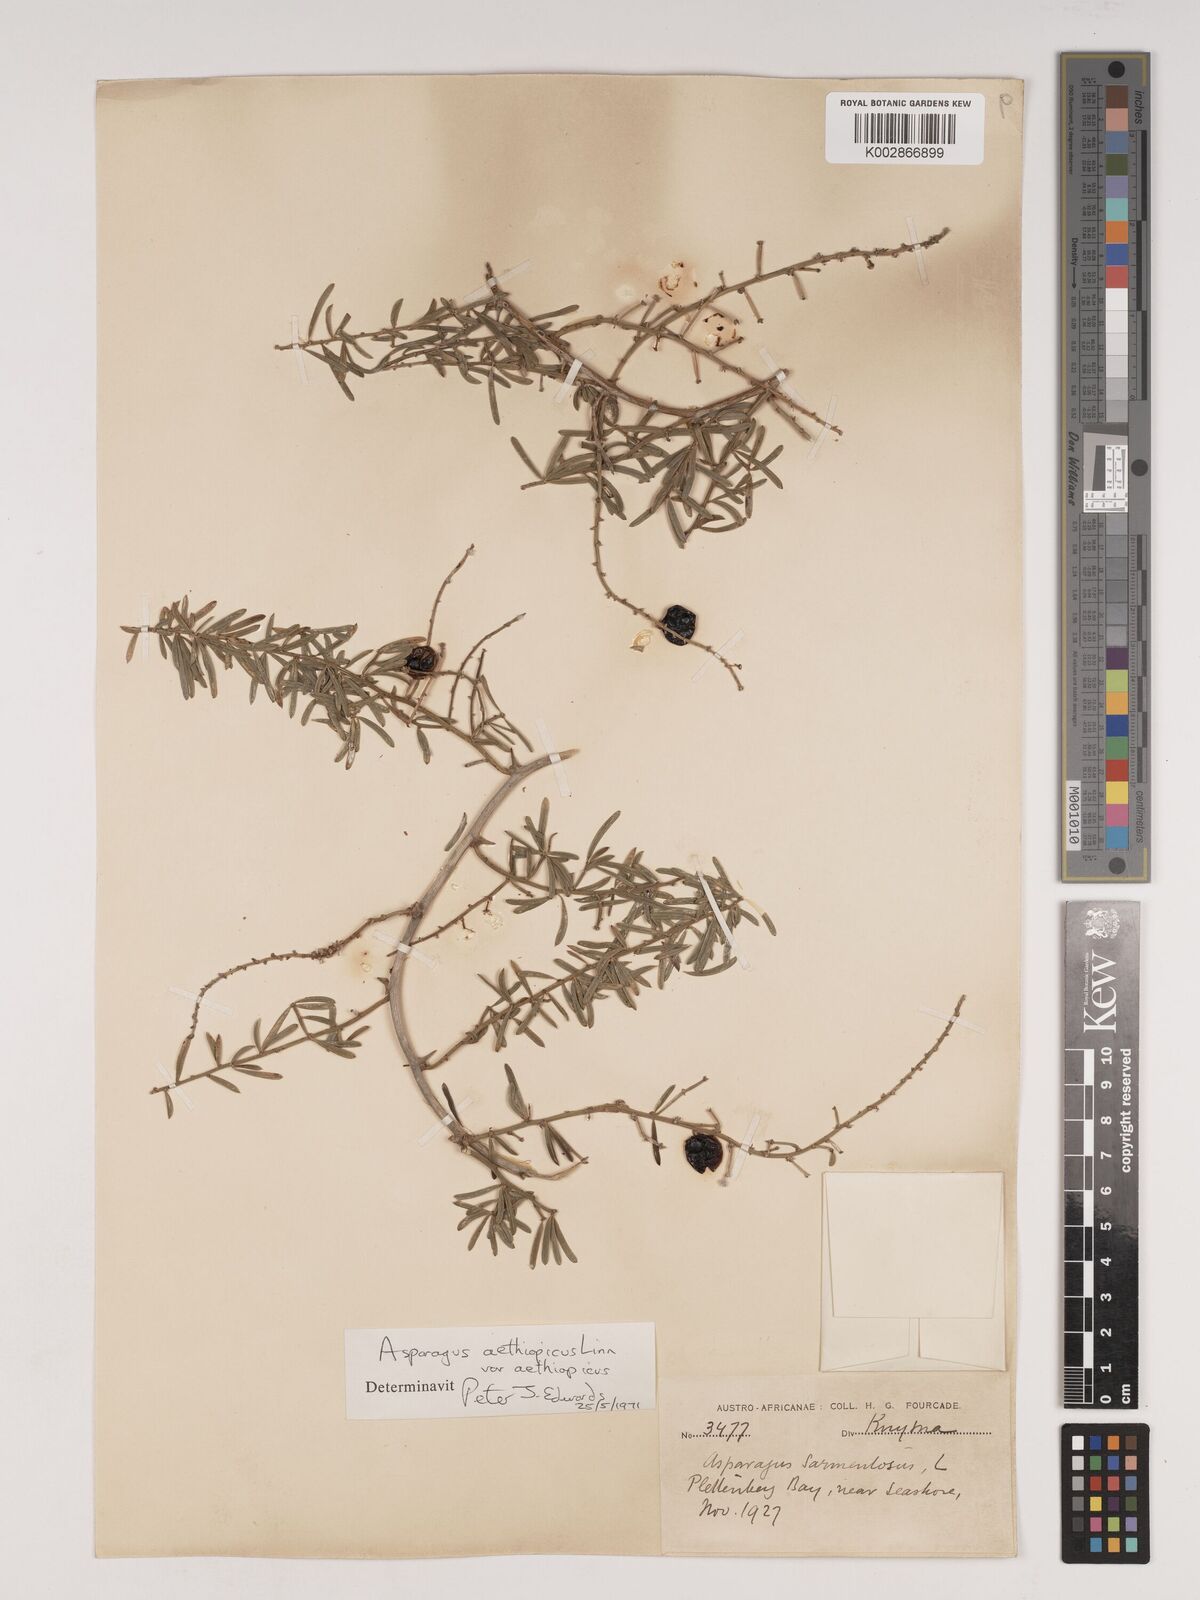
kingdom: Plantae
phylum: Tracheophyta
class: Liliopsida
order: Asparagales
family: Asparagaceae
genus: Asparagus
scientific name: Asparagus aethiopicus
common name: Sprenger's asparagus fern
